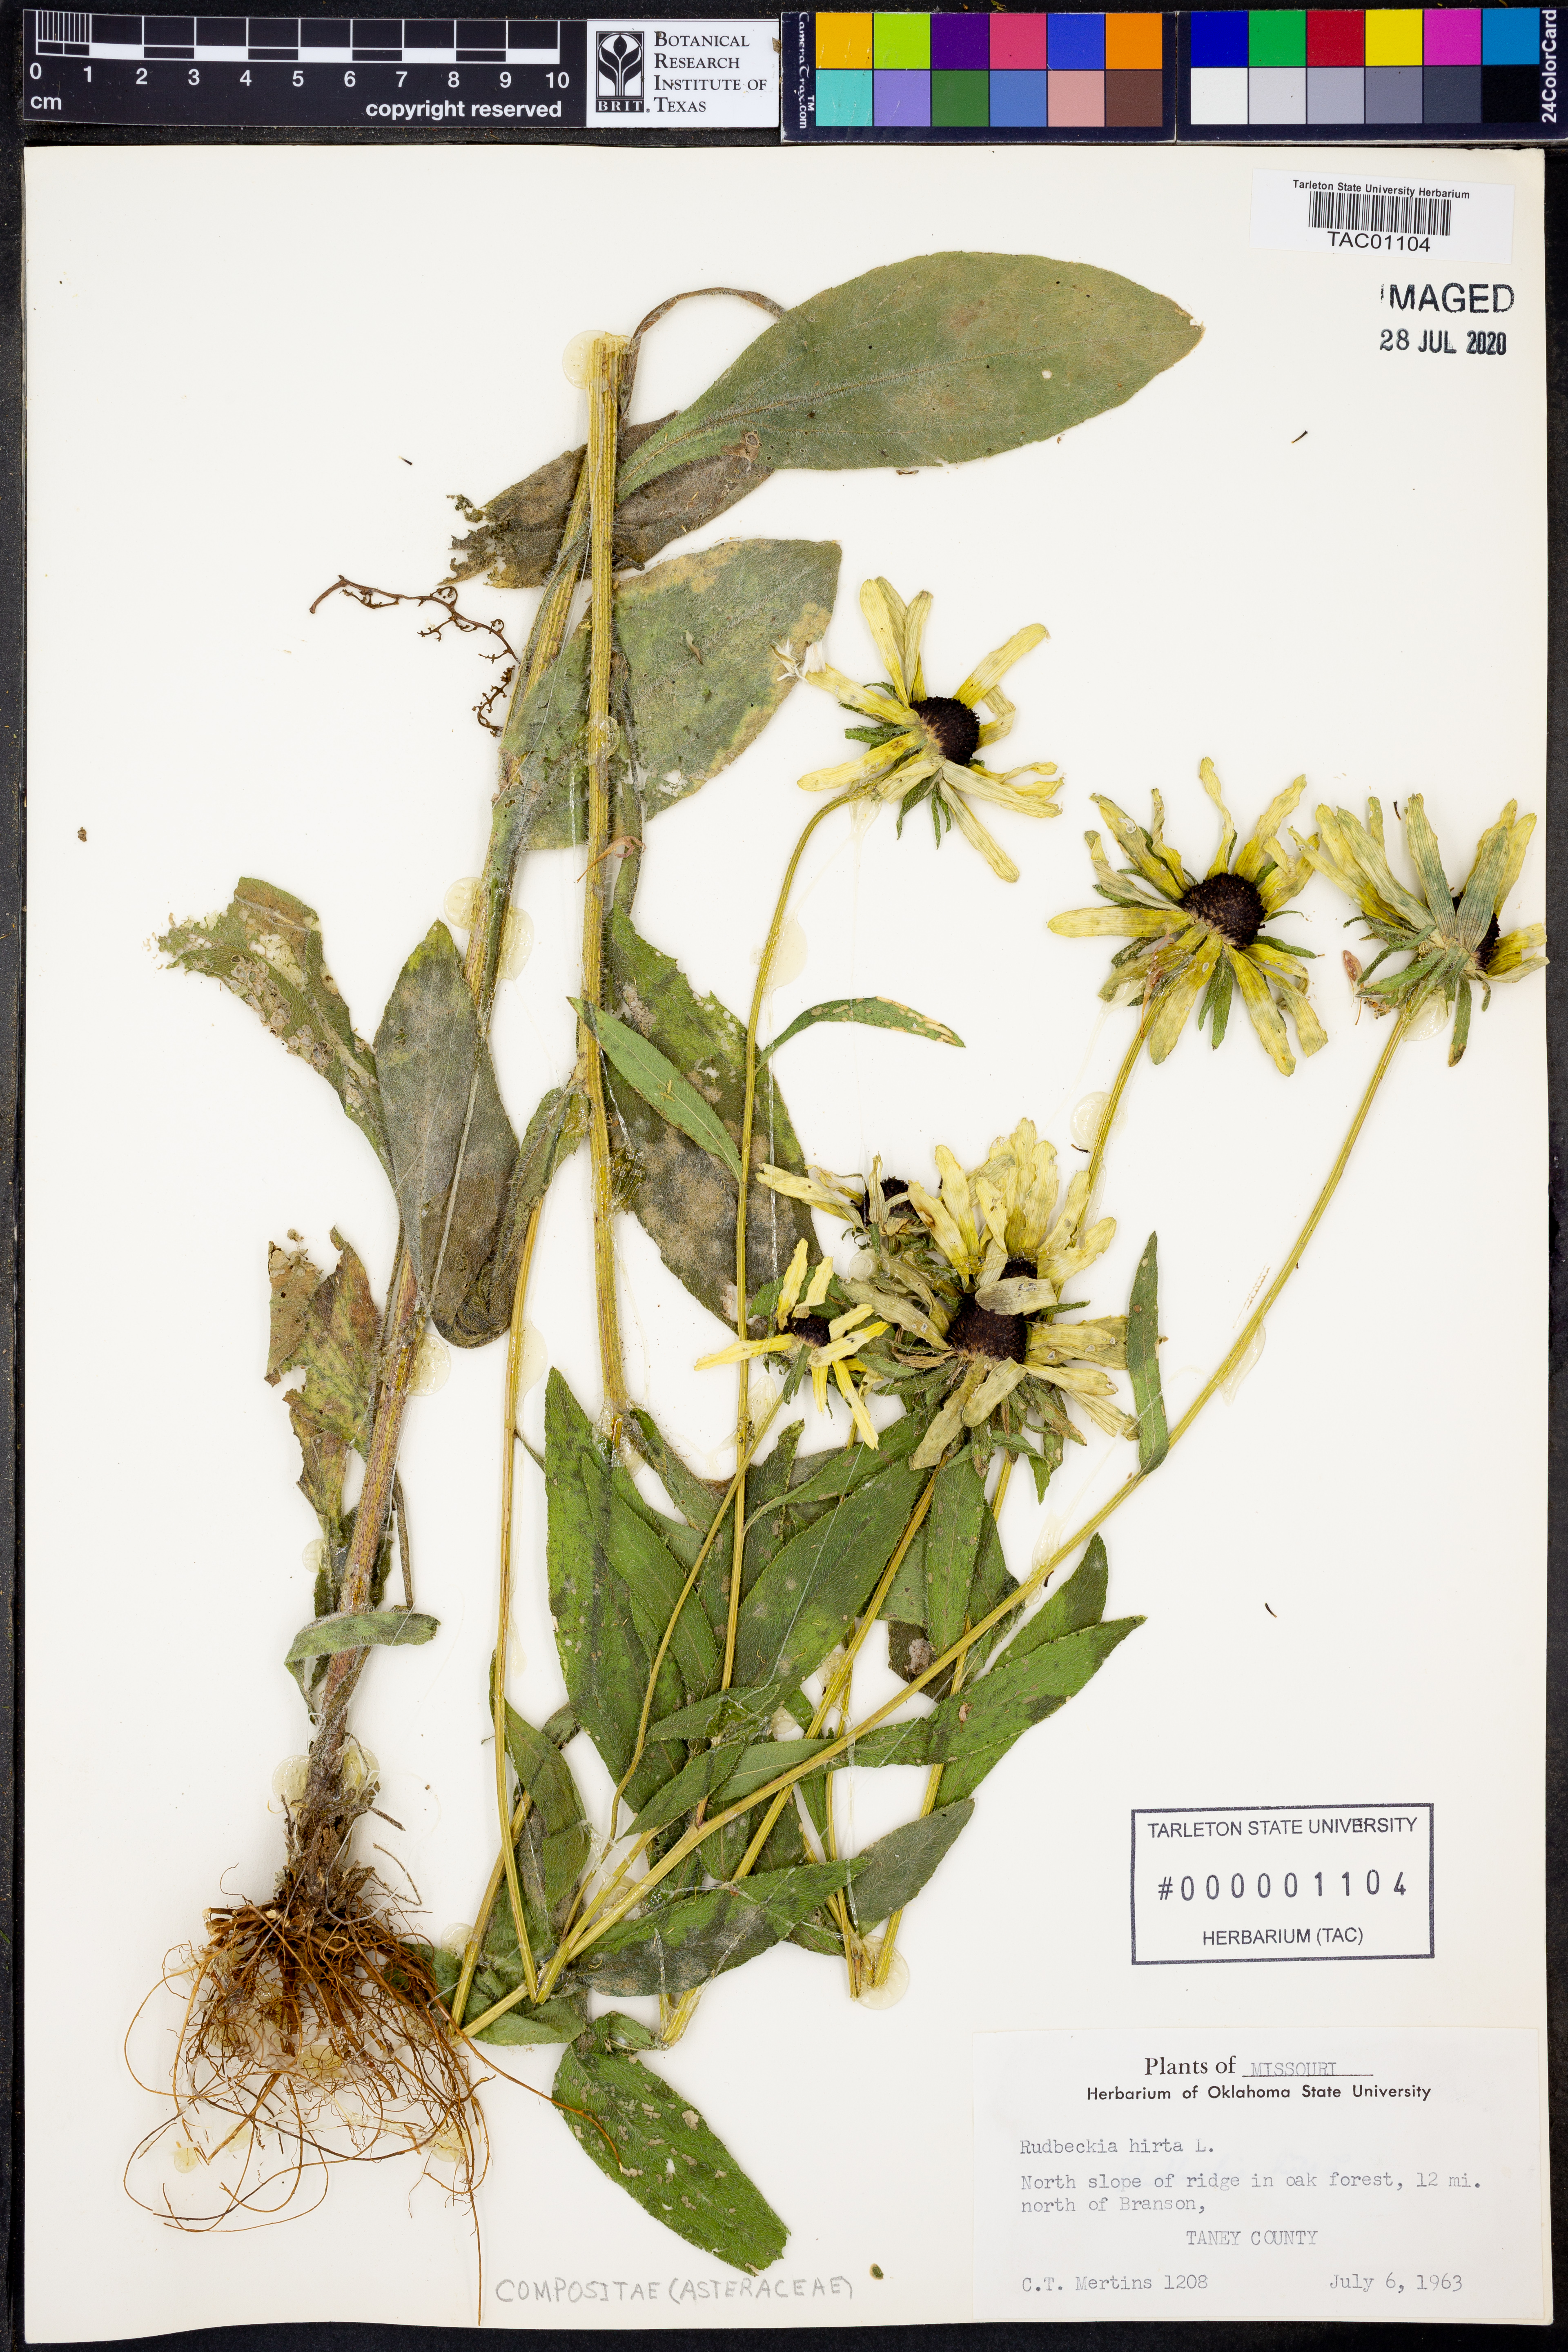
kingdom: Plantae
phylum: Tracheophyta
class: Magnoliopsida
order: Asterales
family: Asteraceae
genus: Rudbeckia
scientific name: Rudbeckia hirta
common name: Black-eyed-susan
